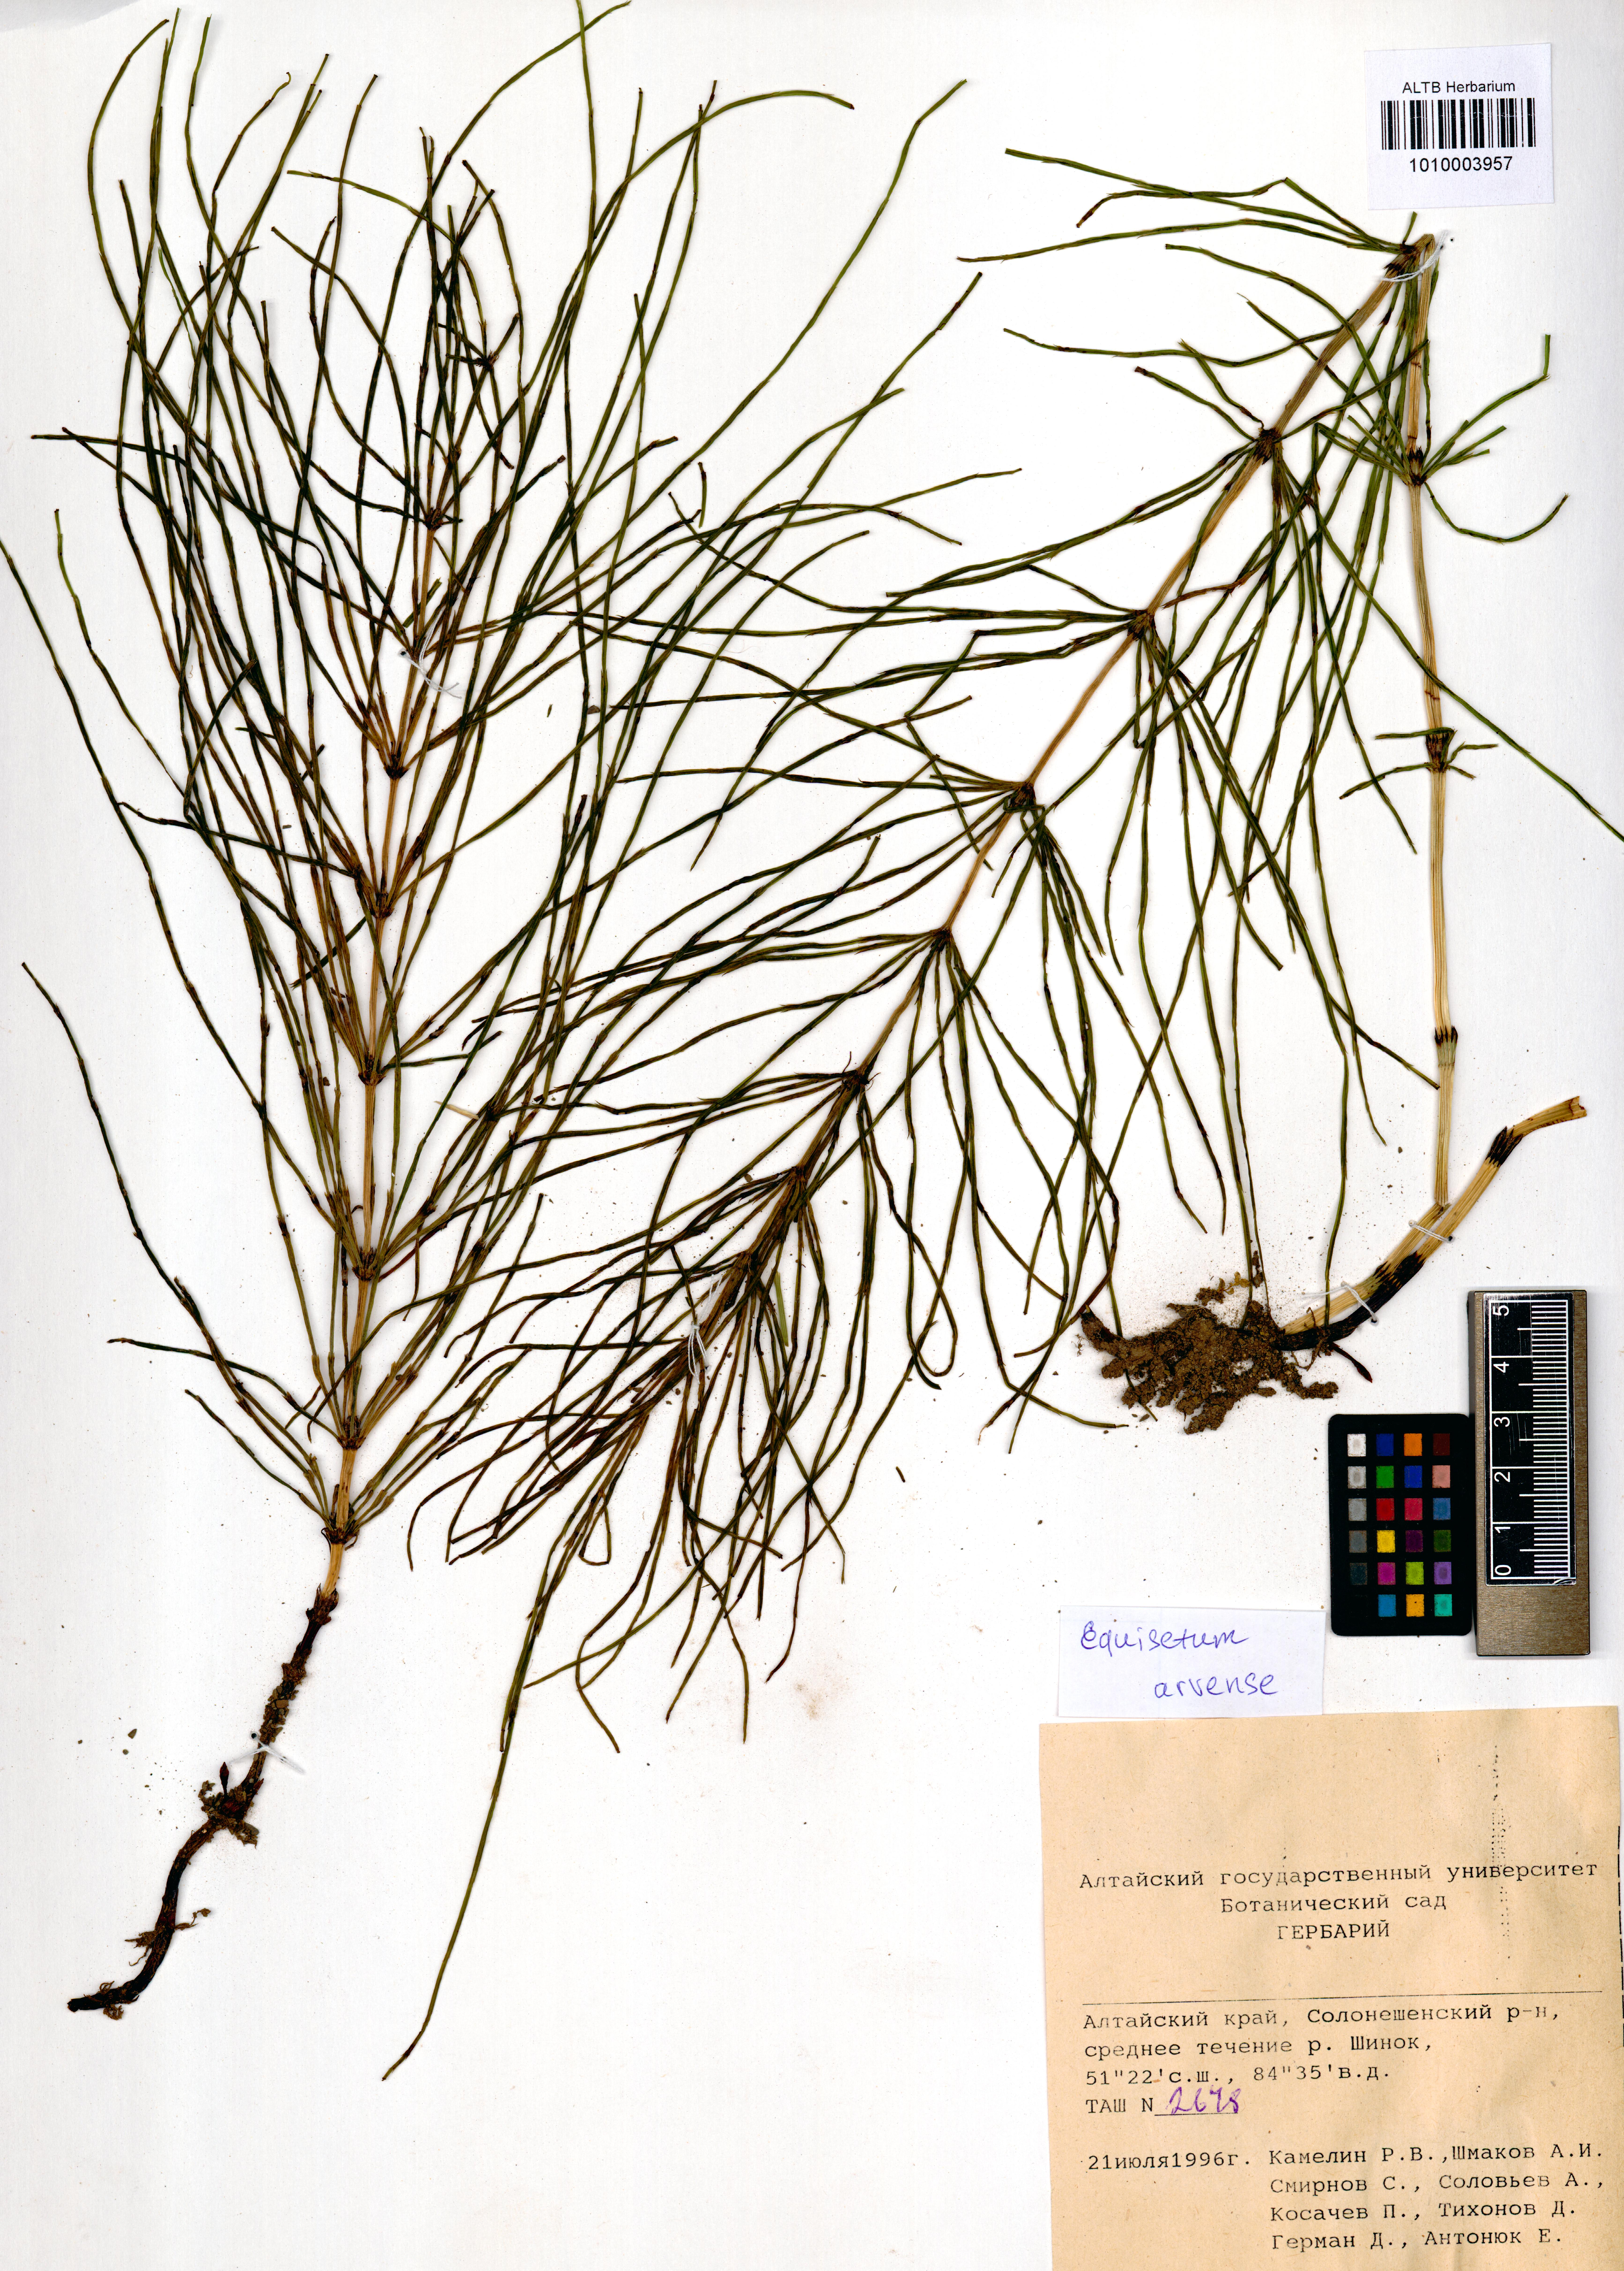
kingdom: Plantae
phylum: Tracheophyta
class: Polypodiopsida
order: Equisetales
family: Equisetaceae
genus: Equisetum
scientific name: Equisetum arvense
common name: Field horsetail
